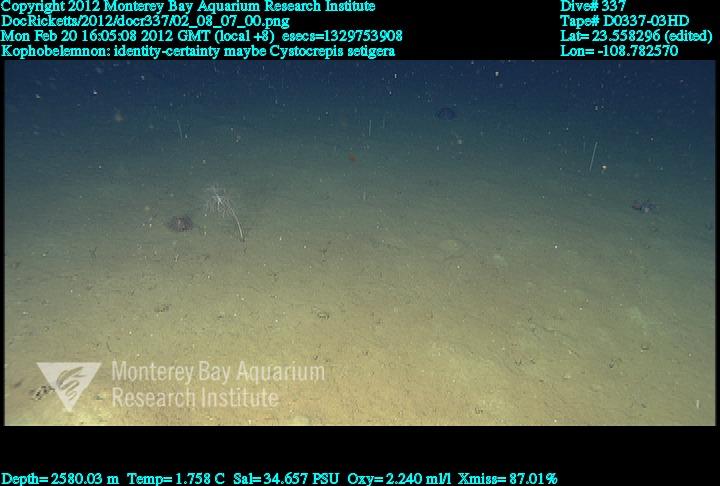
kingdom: Animalia
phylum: Cnidaria
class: Anthozoa
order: Scleralcyonacea
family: Kophobelemnidae
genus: Kophobelemnon
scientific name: Kophobelemnon
